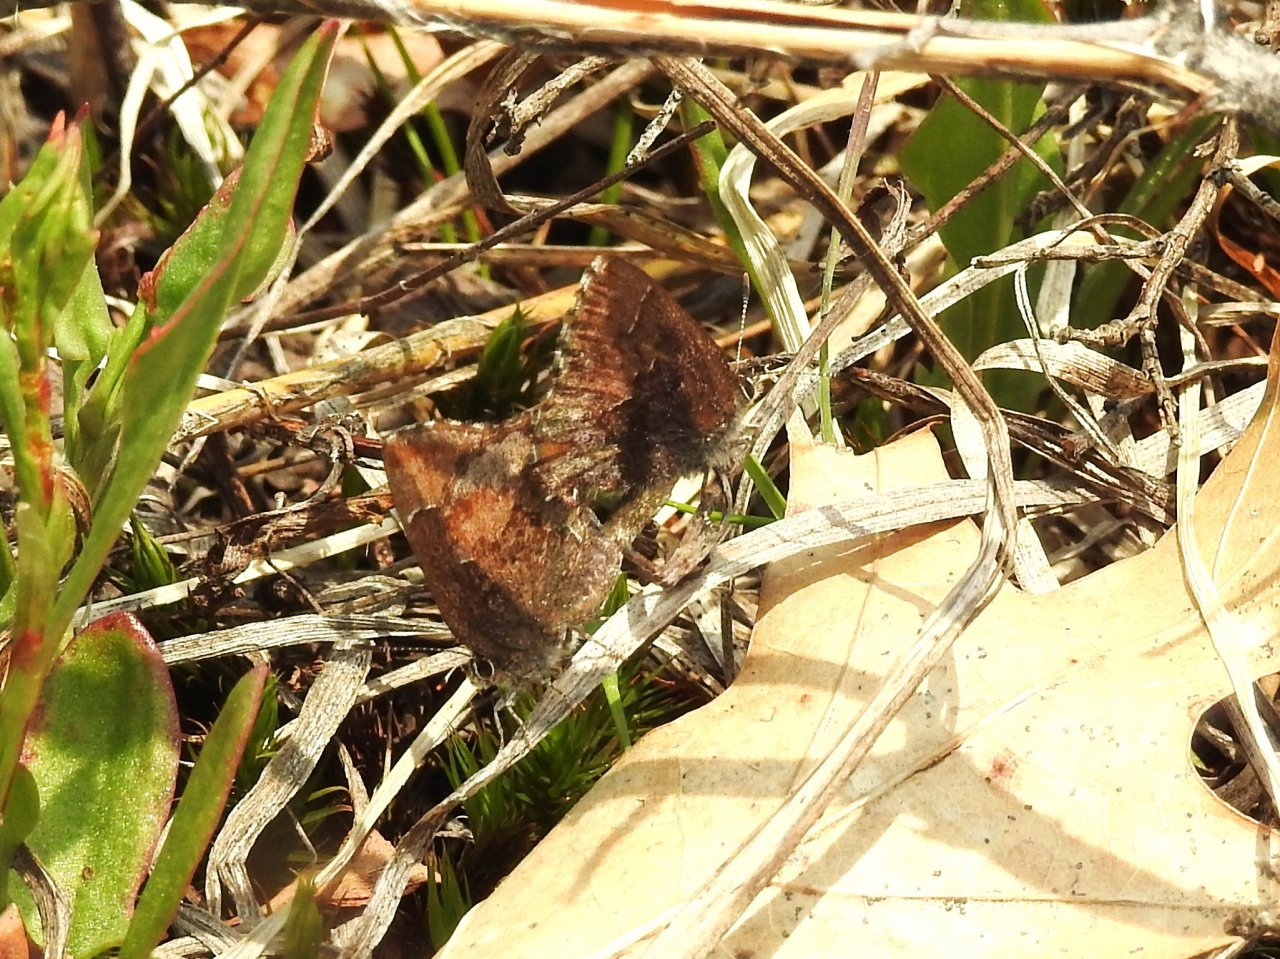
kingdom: Animalia
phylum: Arthropoda
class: Insecta
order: Lepidoptera
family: Lycaenidae
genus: Callophrys
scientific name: Callophrys polios
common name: Hoary Elfin
